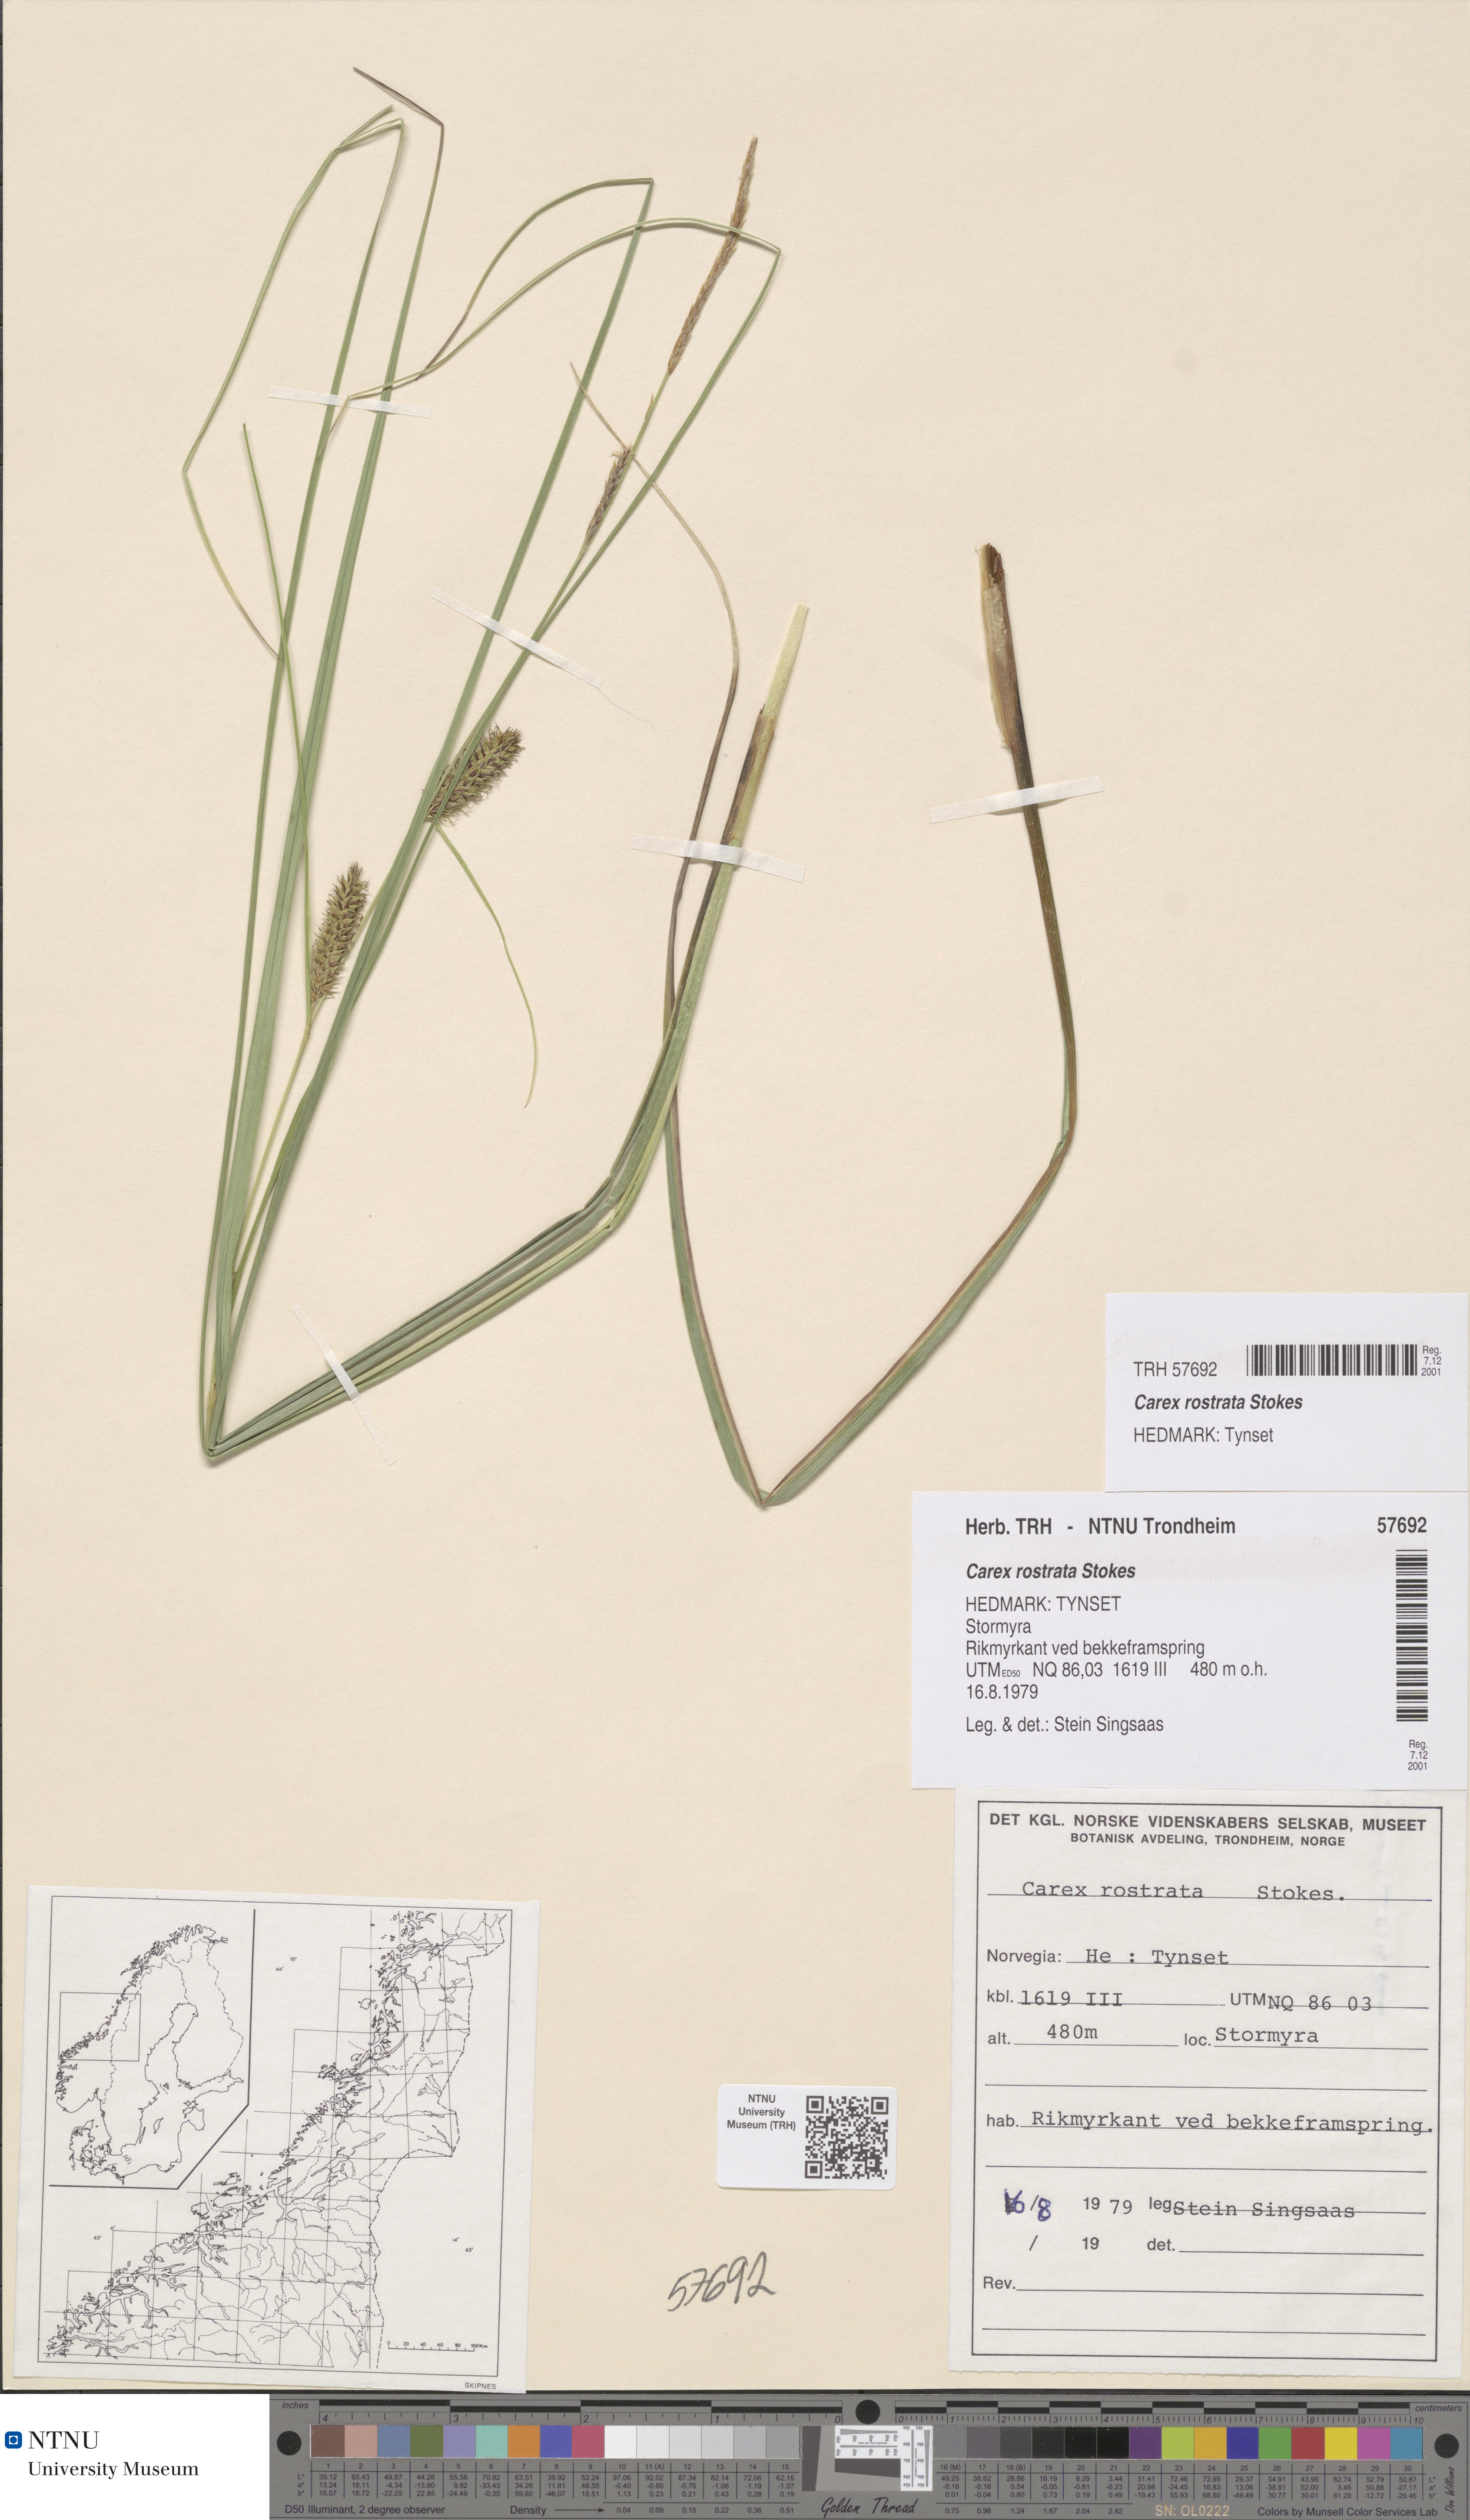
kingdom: Plantae
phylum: Tracheophyta
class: Liliopsida
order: Poales
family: Cyperaceae
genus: Carex
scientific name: Carex rostrata
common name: Bottle sedge
